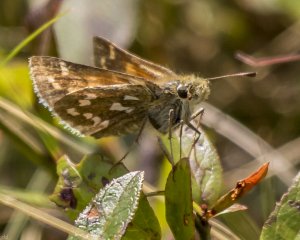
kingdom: Animalia
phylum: Arthropoda
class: Insecta
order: Lepidoptera
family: Hesperiidae
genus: Hesperia
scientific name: Hesperia comma
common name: Common Branded Skipper
